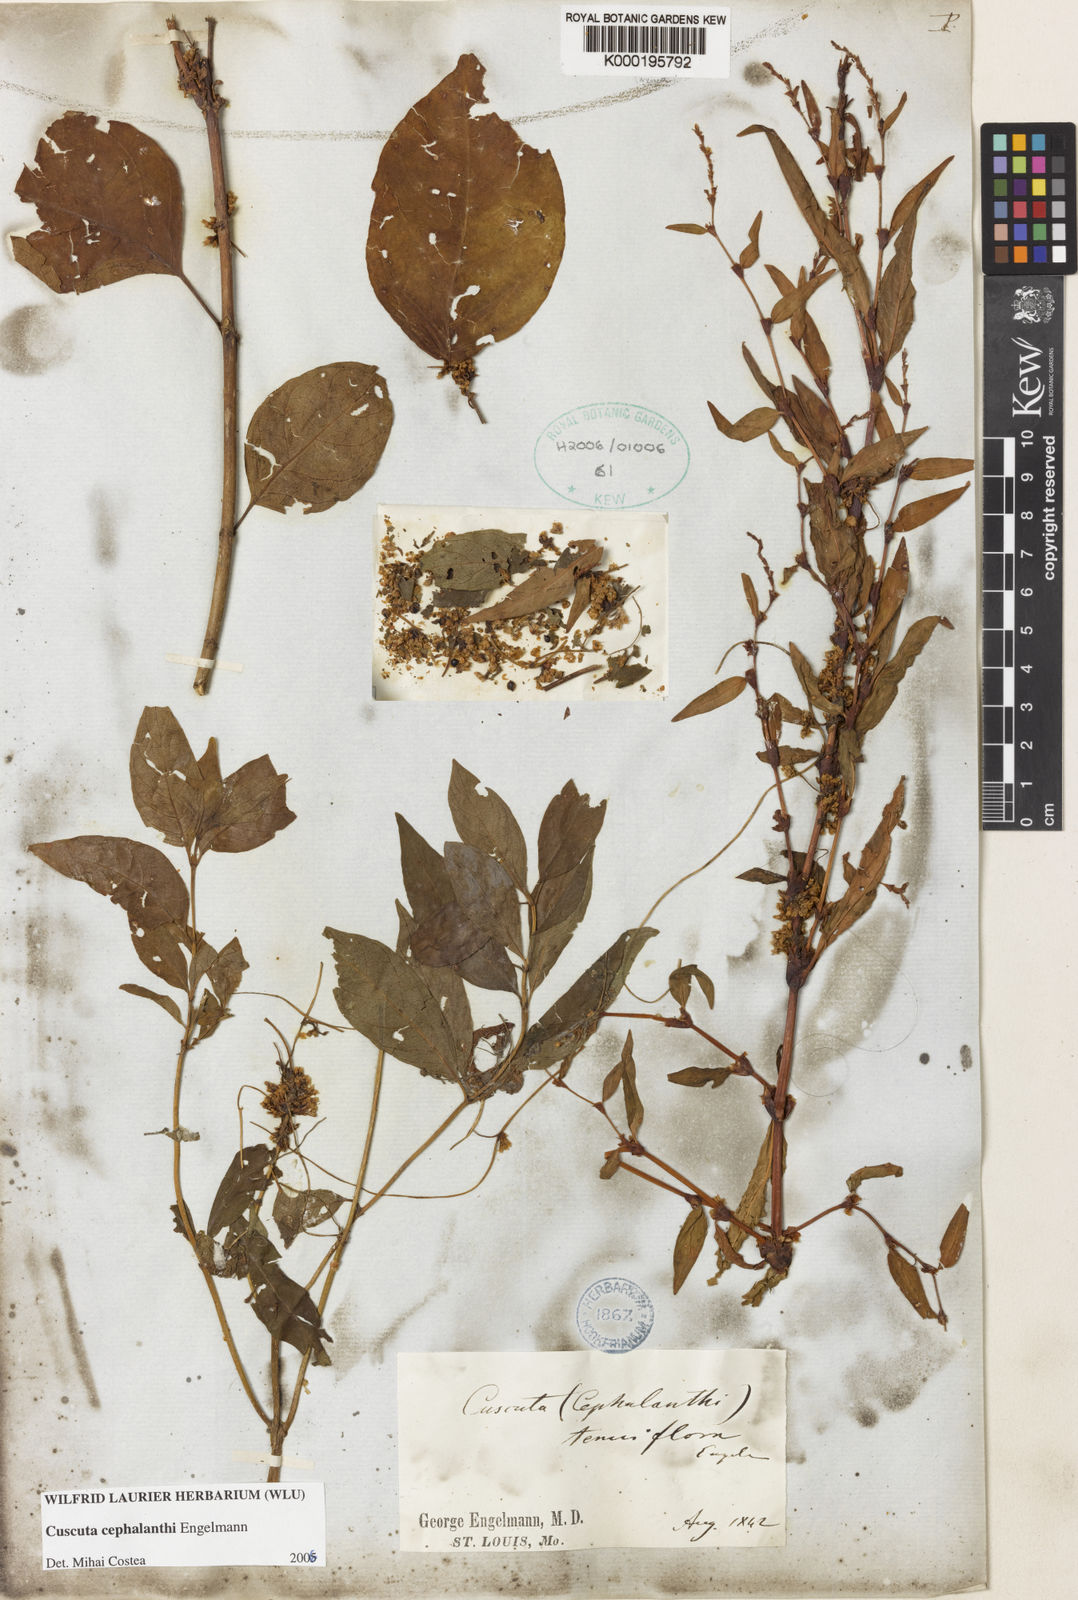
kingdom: Plantae
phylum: Tracheophyta
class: Magnoliopsida
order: Solanales
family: Convolvulaceae
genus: Cuscuta
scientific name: Cuscuta cephalanthi
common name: Button dodder
